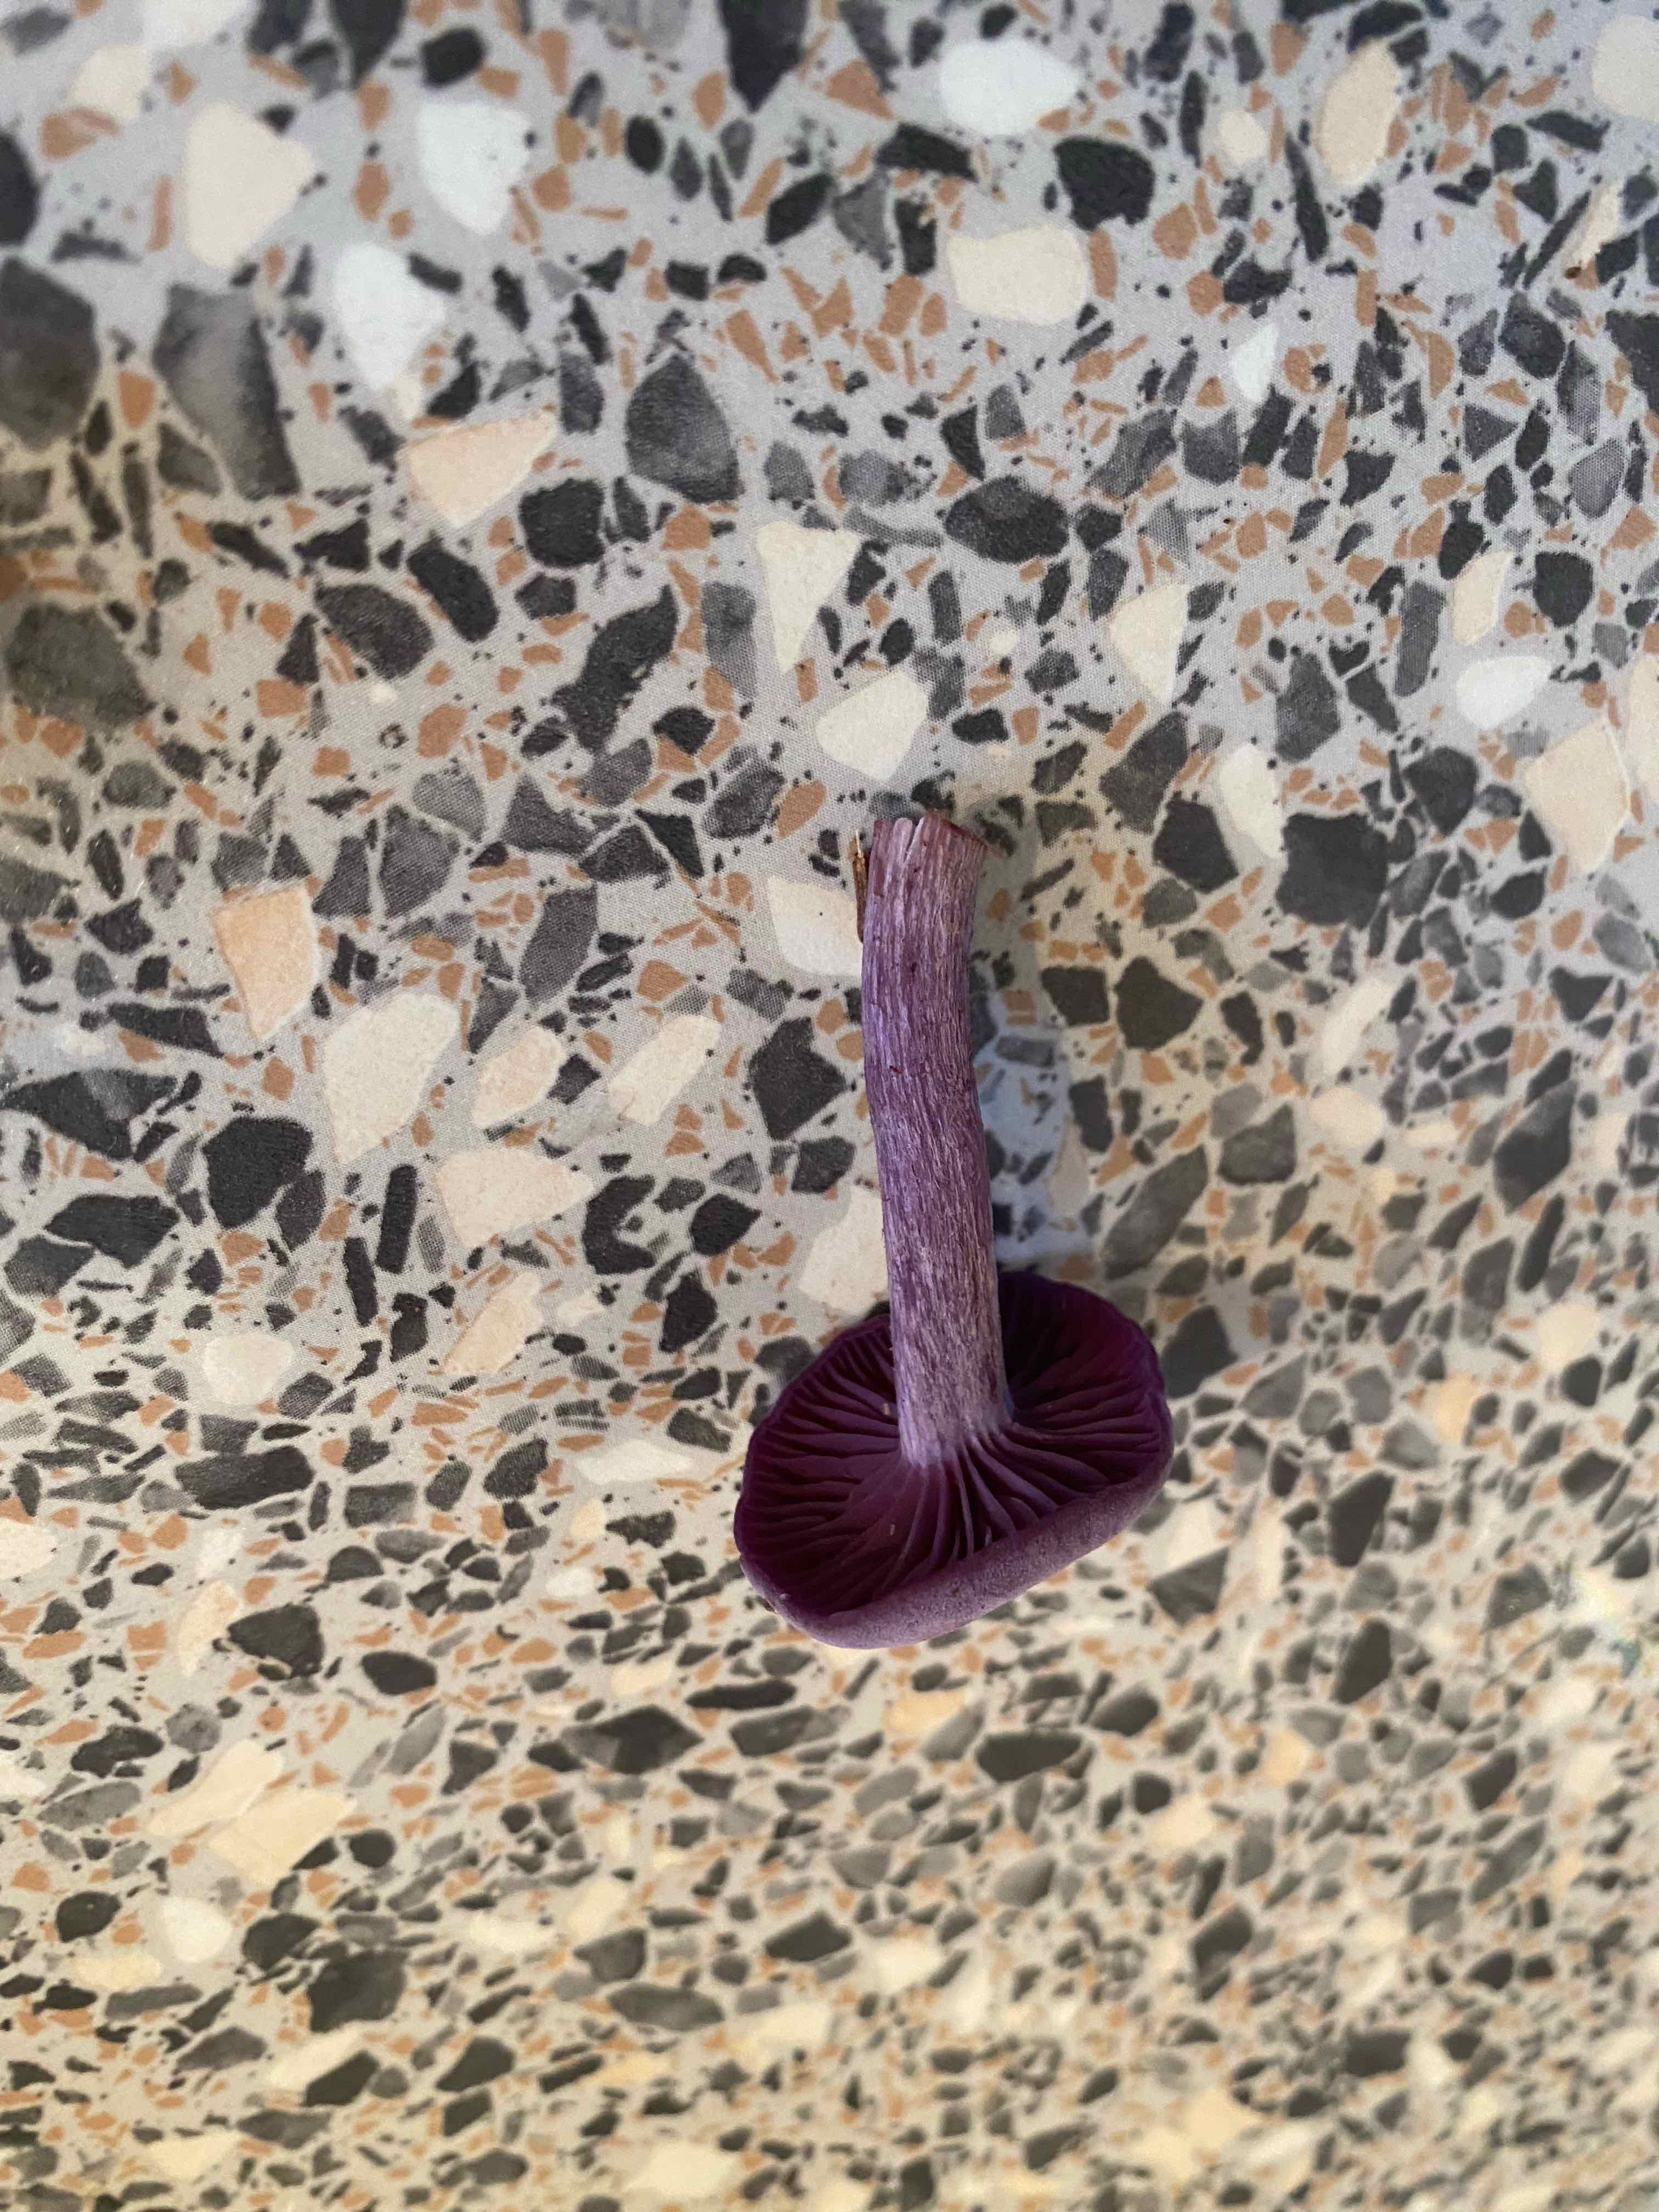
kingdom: Fungi
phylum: Basidiomycota
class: Agaricomycetes
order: Agaricales
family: Hydnangiaceae
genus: Laccaria
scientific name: Laccaria amethystina
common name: violet ametysthat
